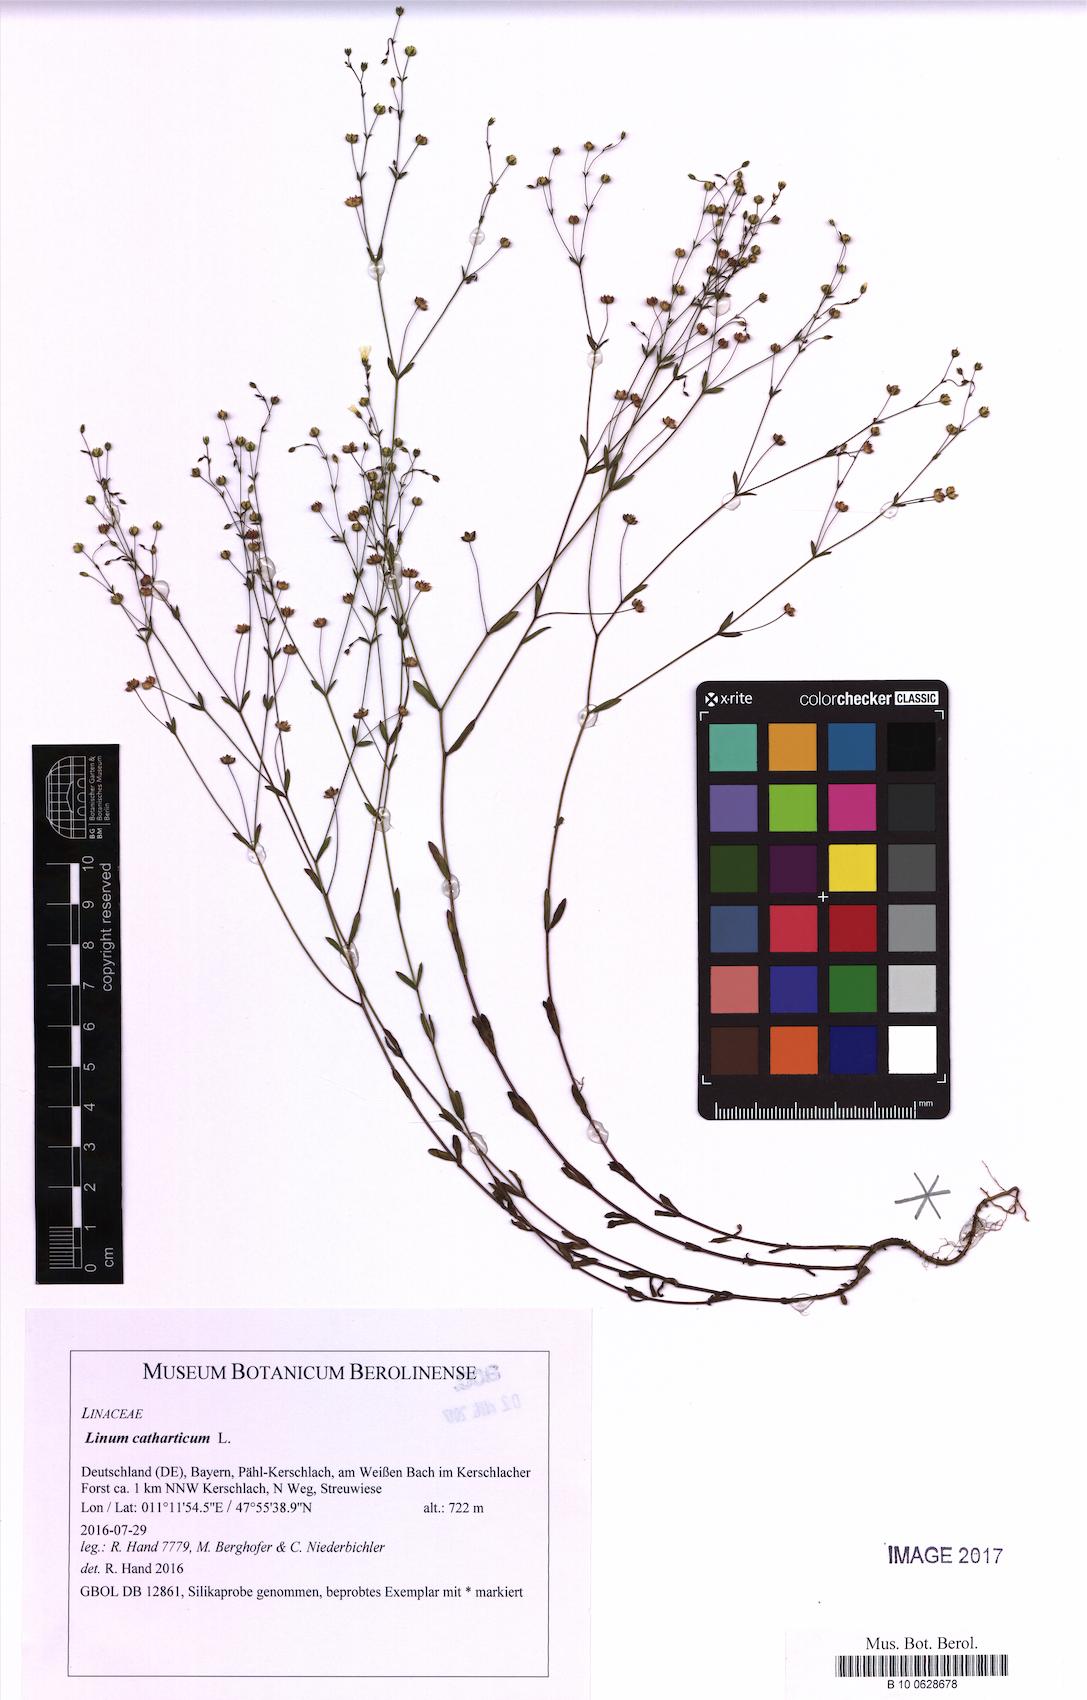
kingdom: Plantae
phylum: Tracheophyta
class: Magnoliopsida
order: Malpighiales
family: Linaceae
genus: Linum
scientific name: Linum catharticum
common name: Fairy flax
